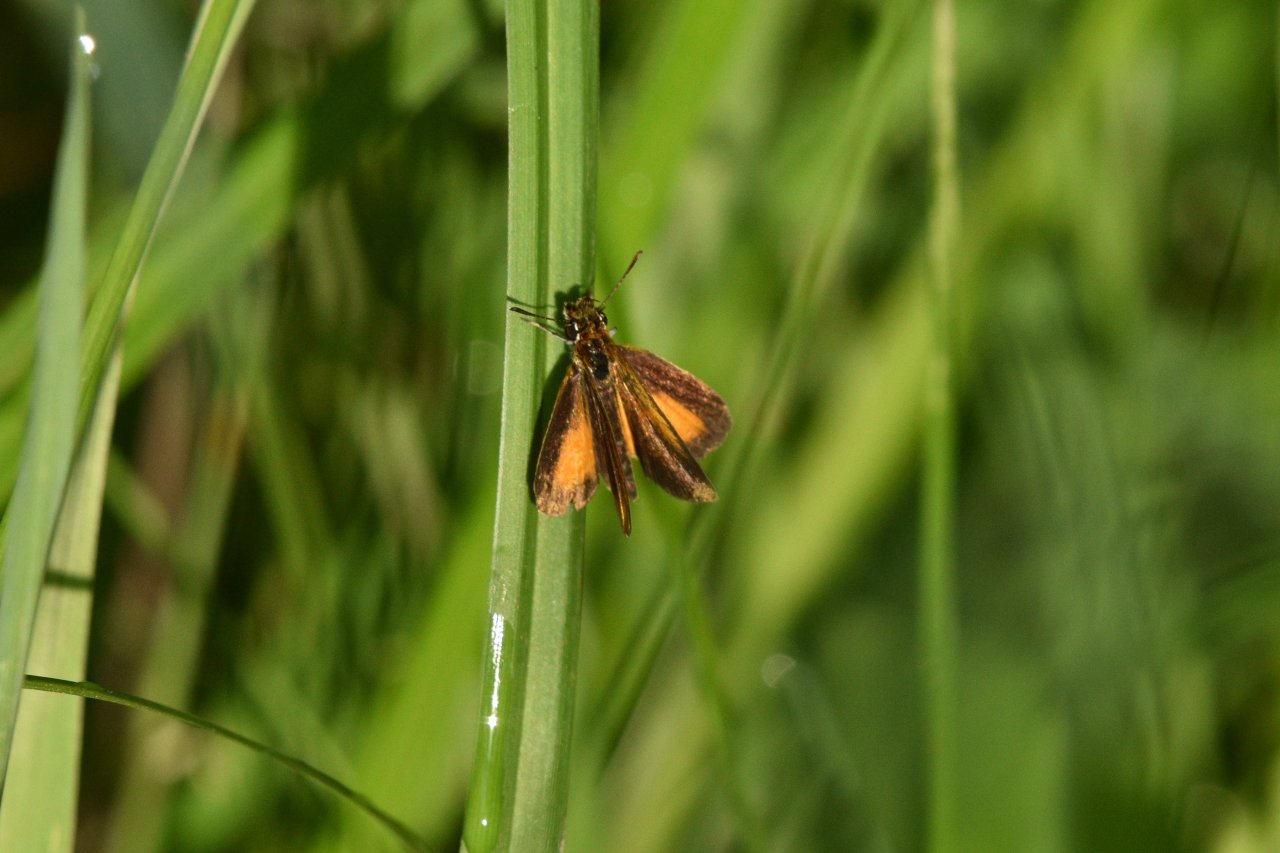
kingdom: Animalia
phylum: Arthropoda
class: Insecta
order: Lepidoptera
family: Hesperiidae
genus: Ancyloxypha
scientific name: Ancyloxypha numitor
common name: Least Skipper
